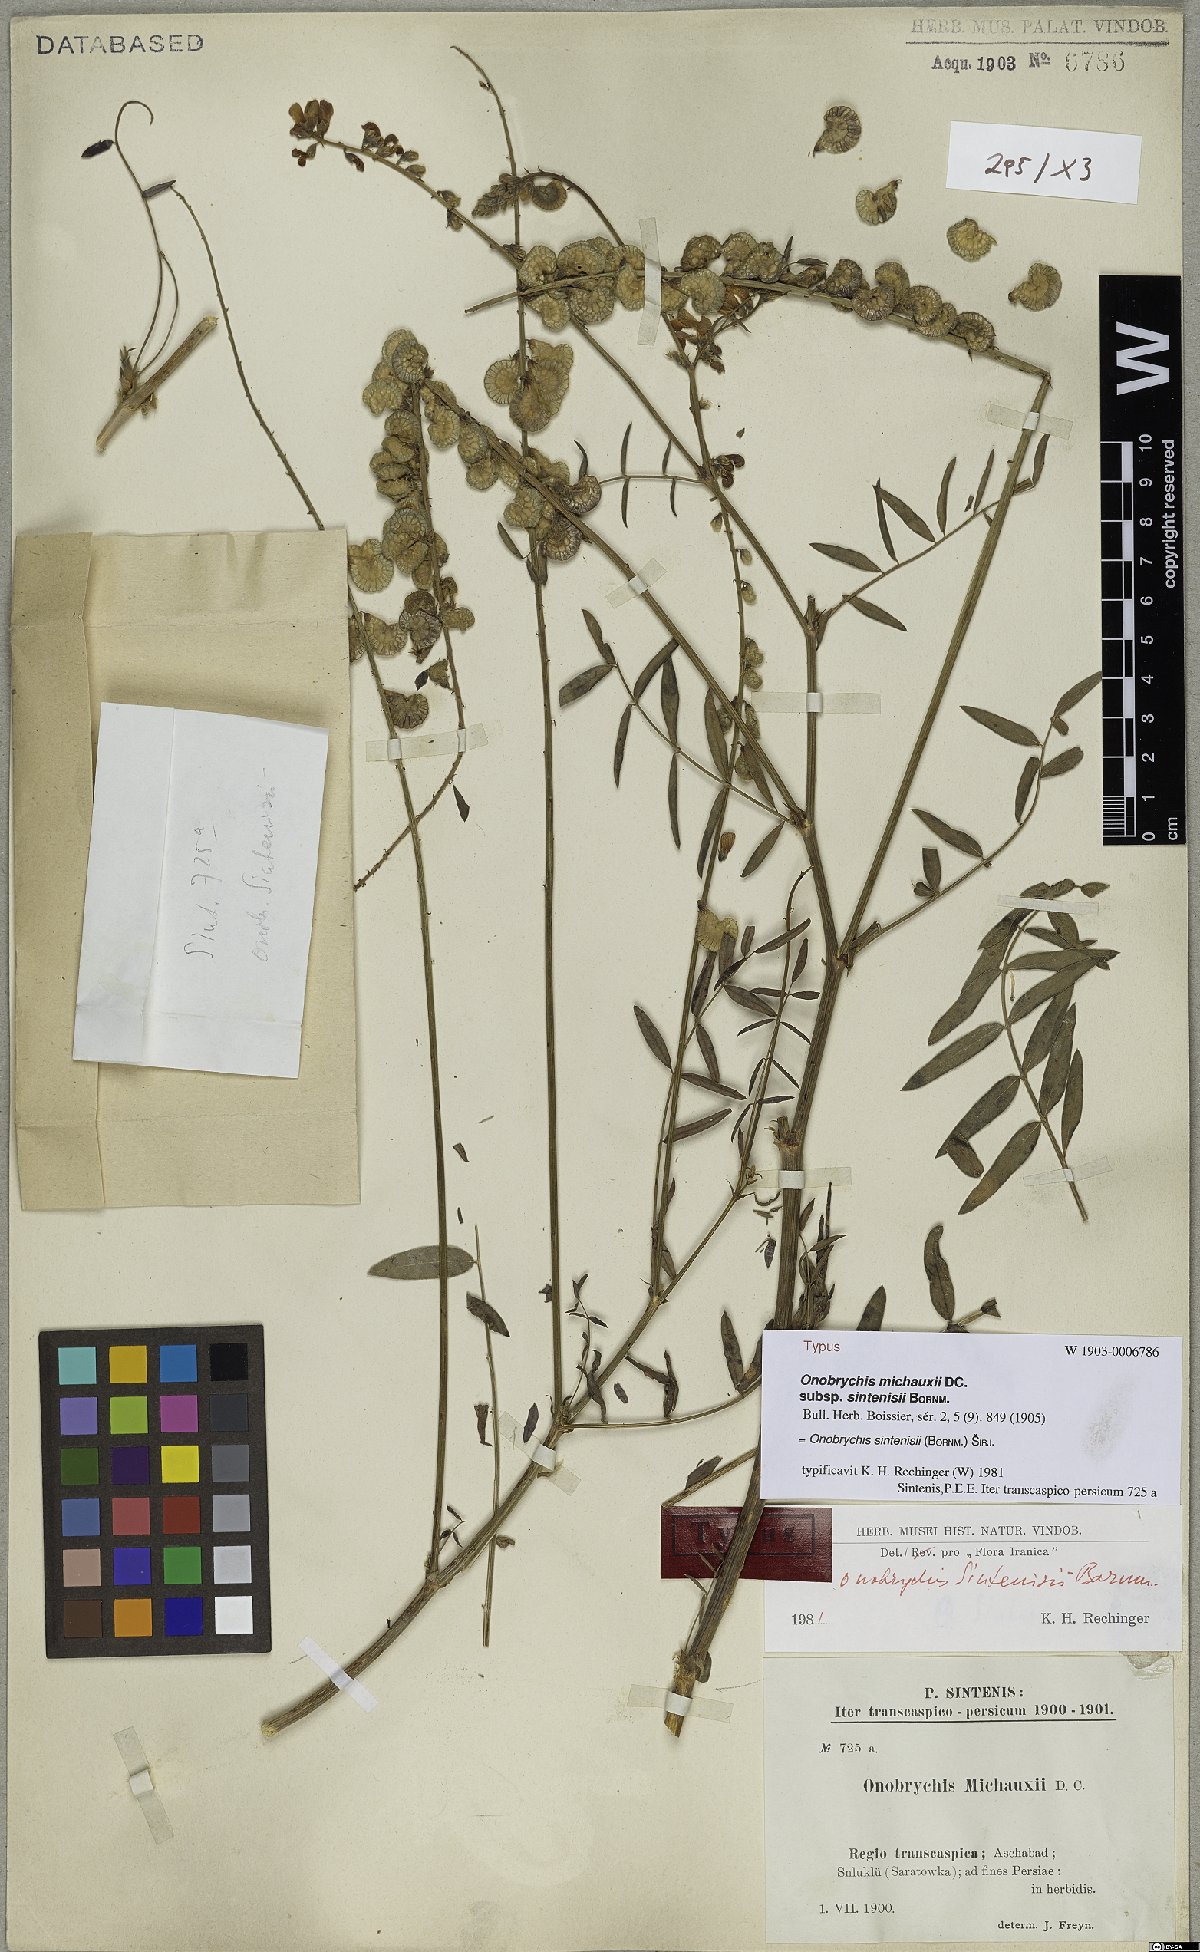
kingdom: Plantae
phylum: Tracheophyta
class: Magnoliopsida
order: Fabales
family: Fabaceae
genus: Onobrychis
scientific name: Onobrychis sintenisii
